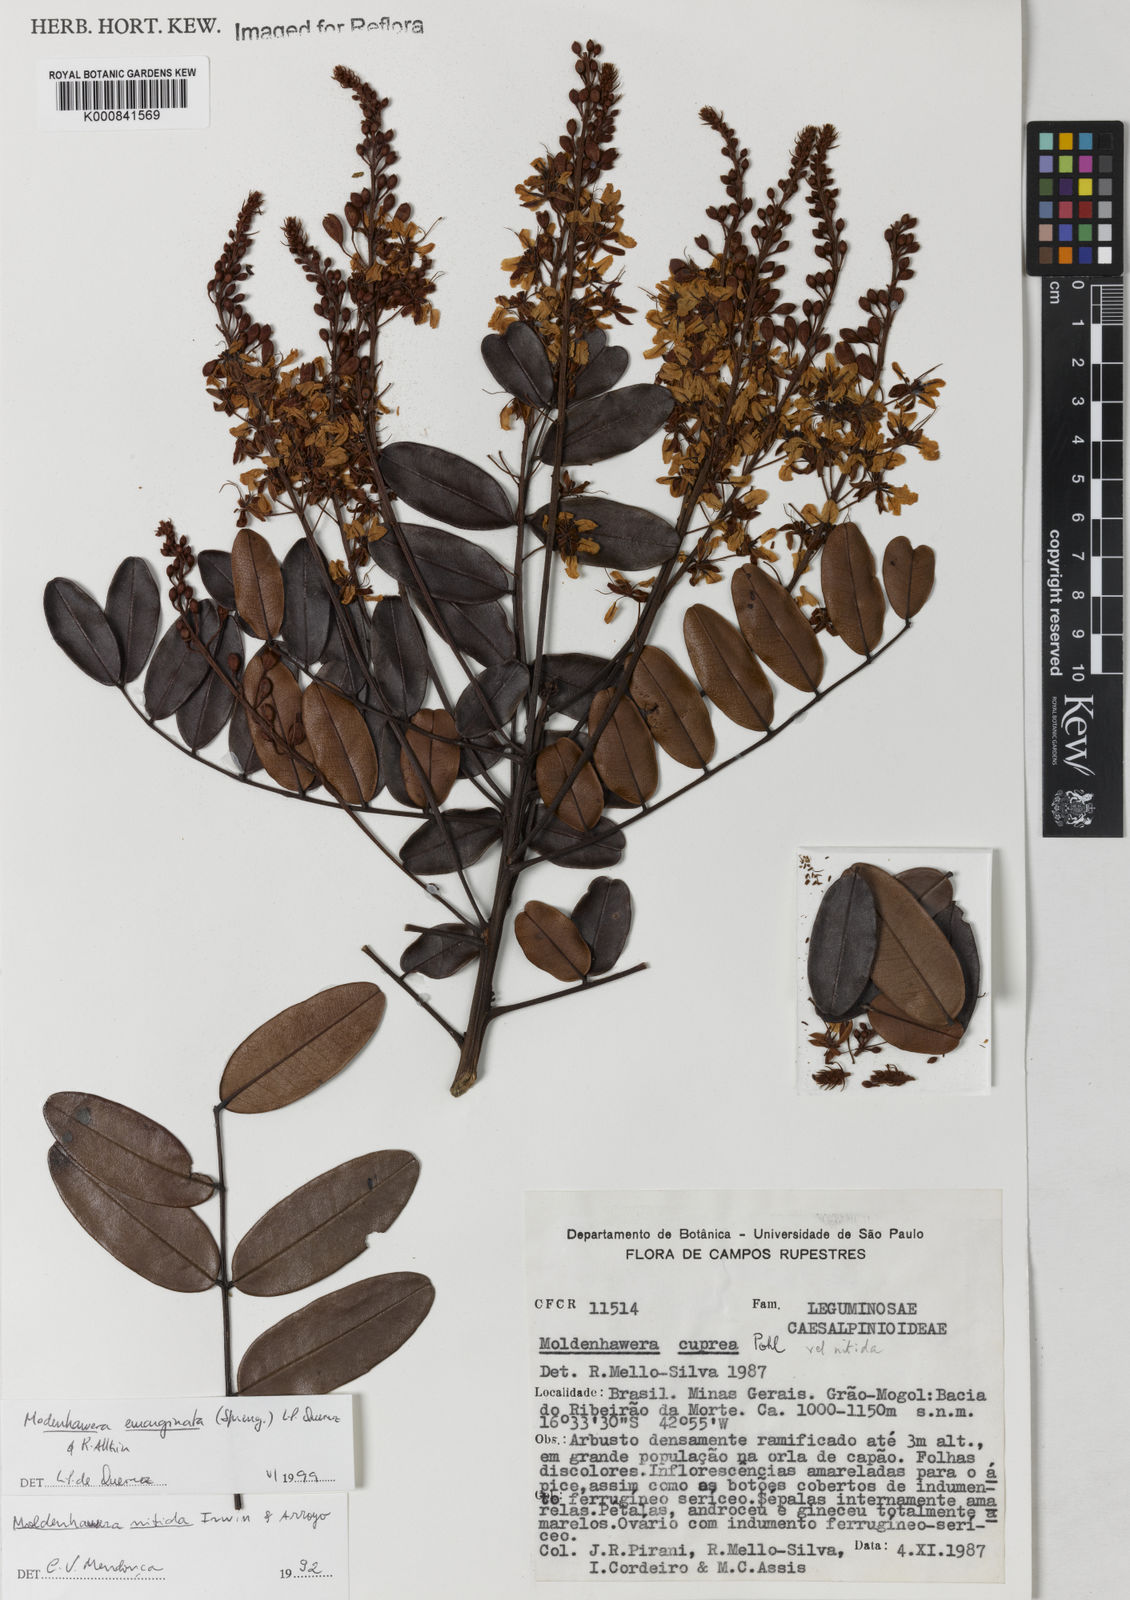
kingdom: Plantae
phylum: Tracheophyta
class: Magnoliopsida
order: Fabales
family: Fabaceae
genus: Moldenhawera
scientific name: Moldenhawera emarginata
